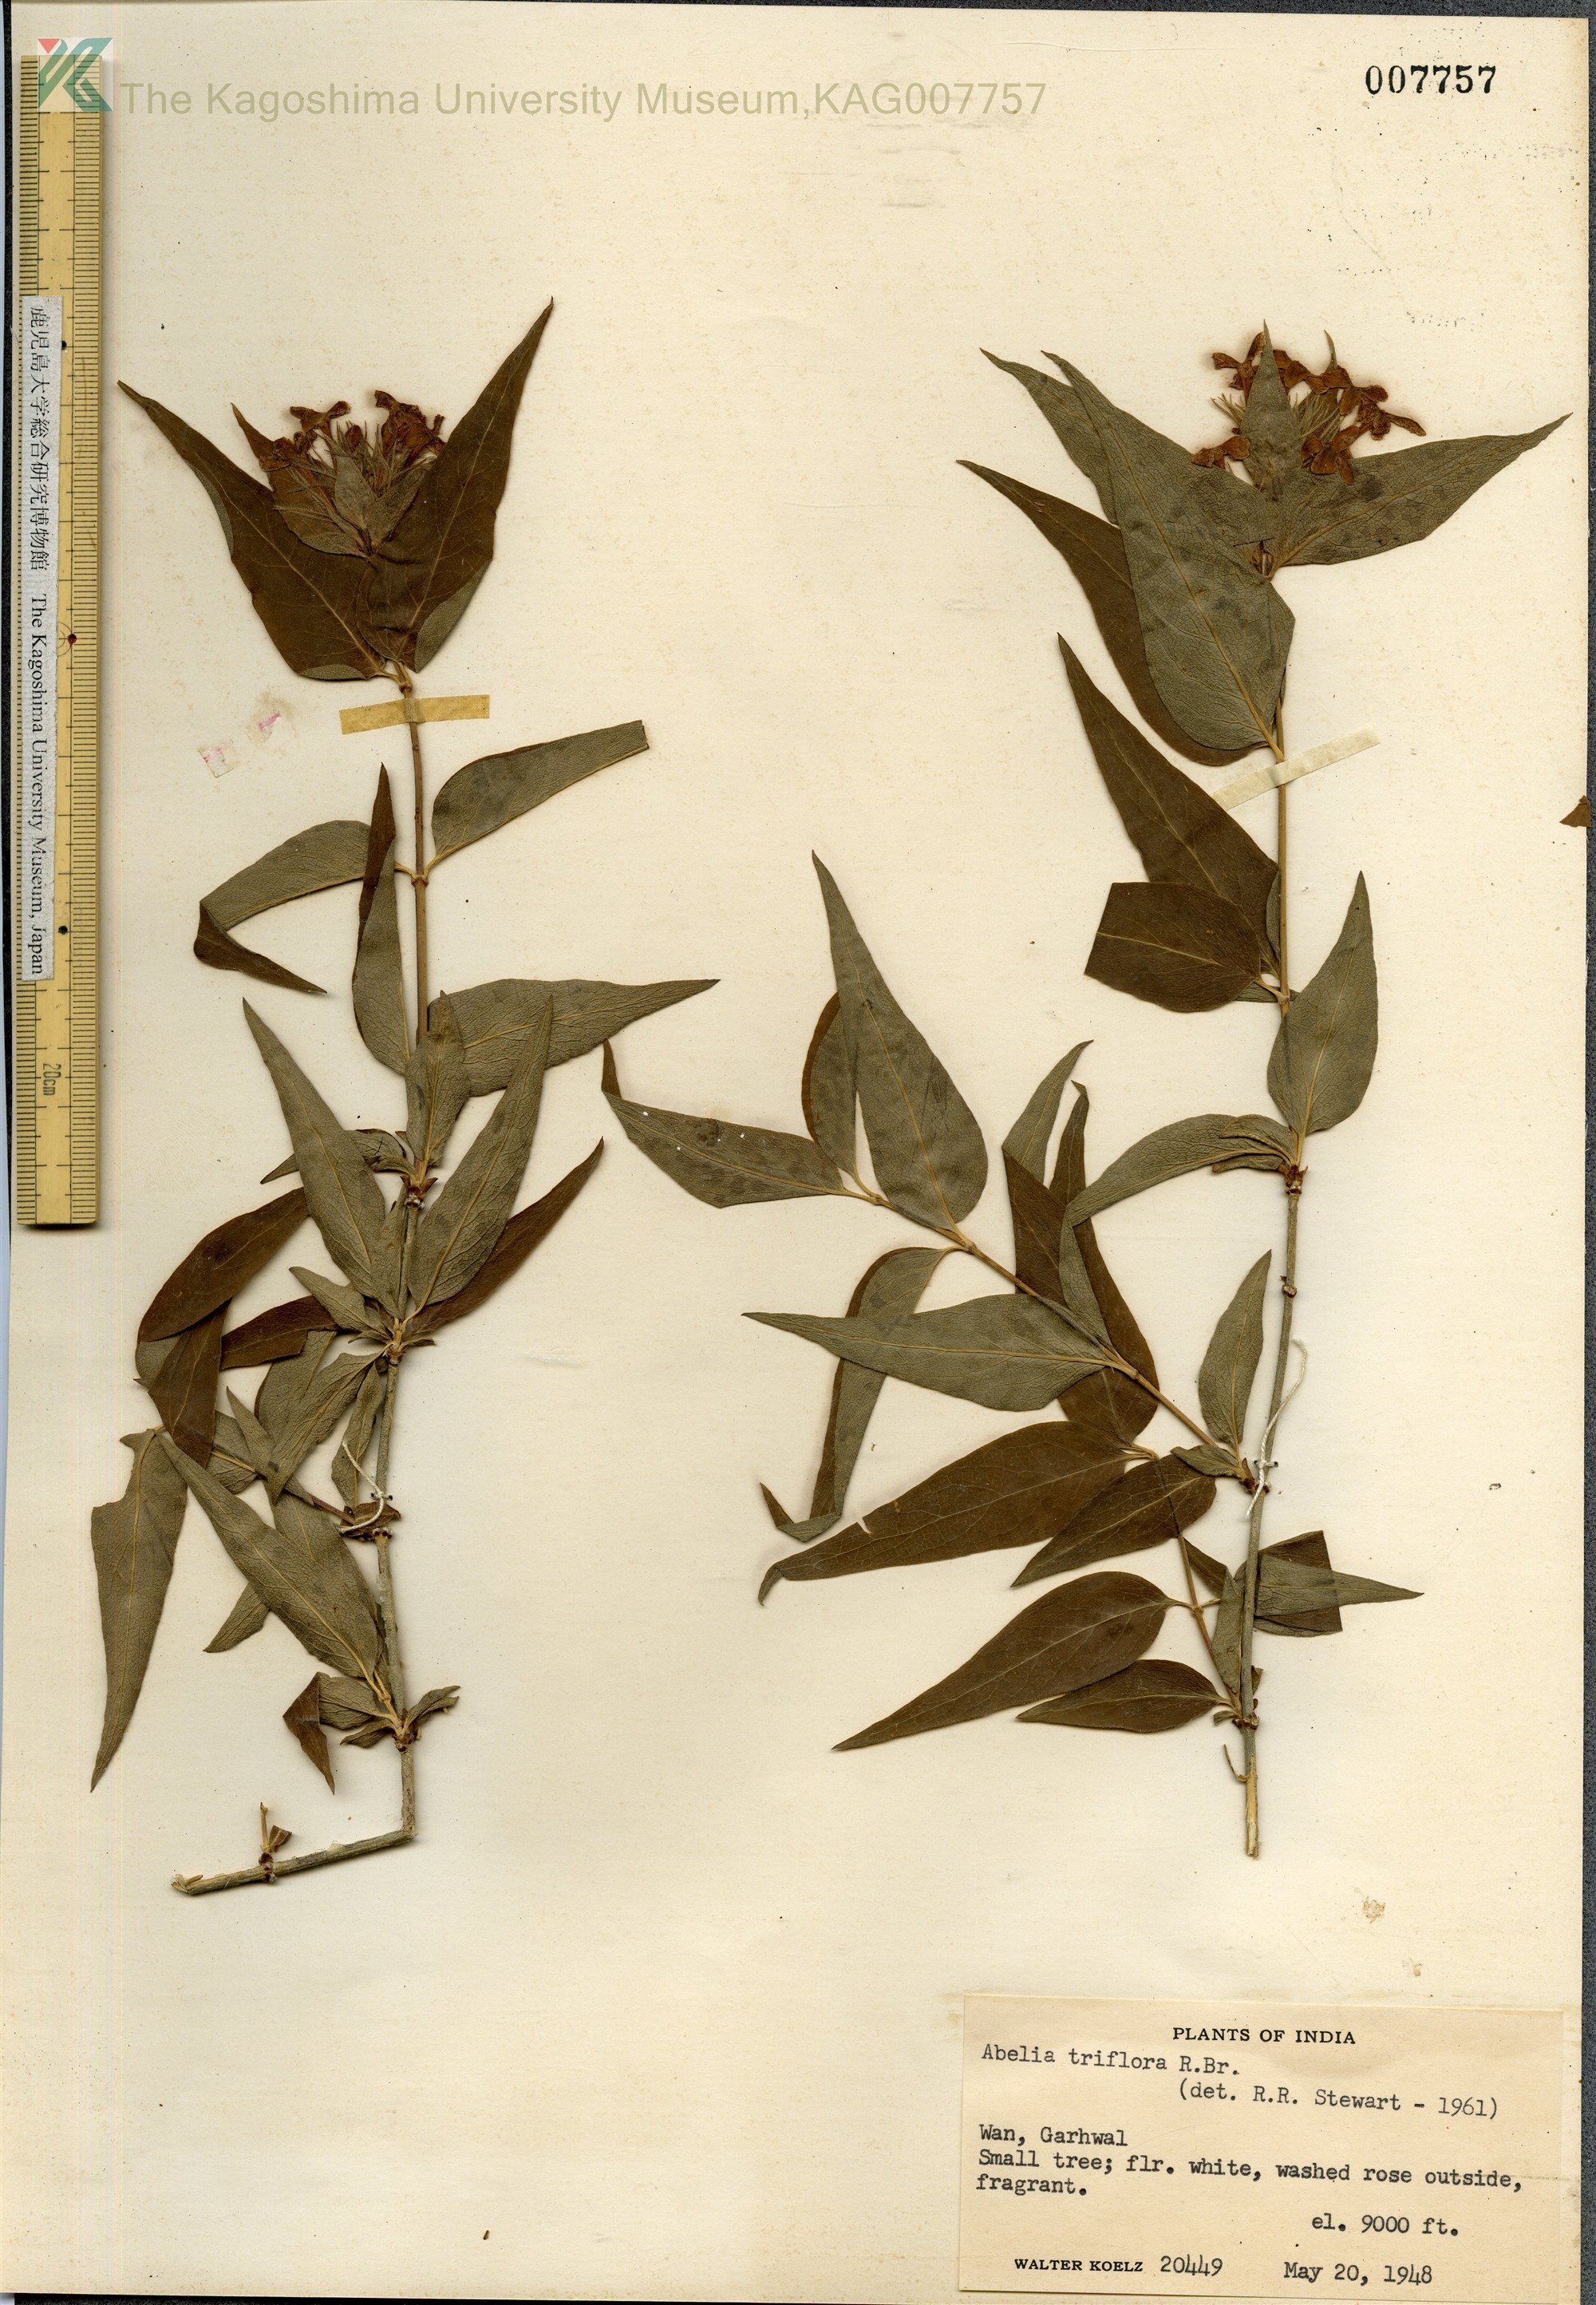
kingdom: Plantae
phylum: Tracheophyta
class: Magnoliopsida
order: Dipsacales
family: Caprifoliaceae
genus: Diabelia
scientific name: Diabelia spathulata
